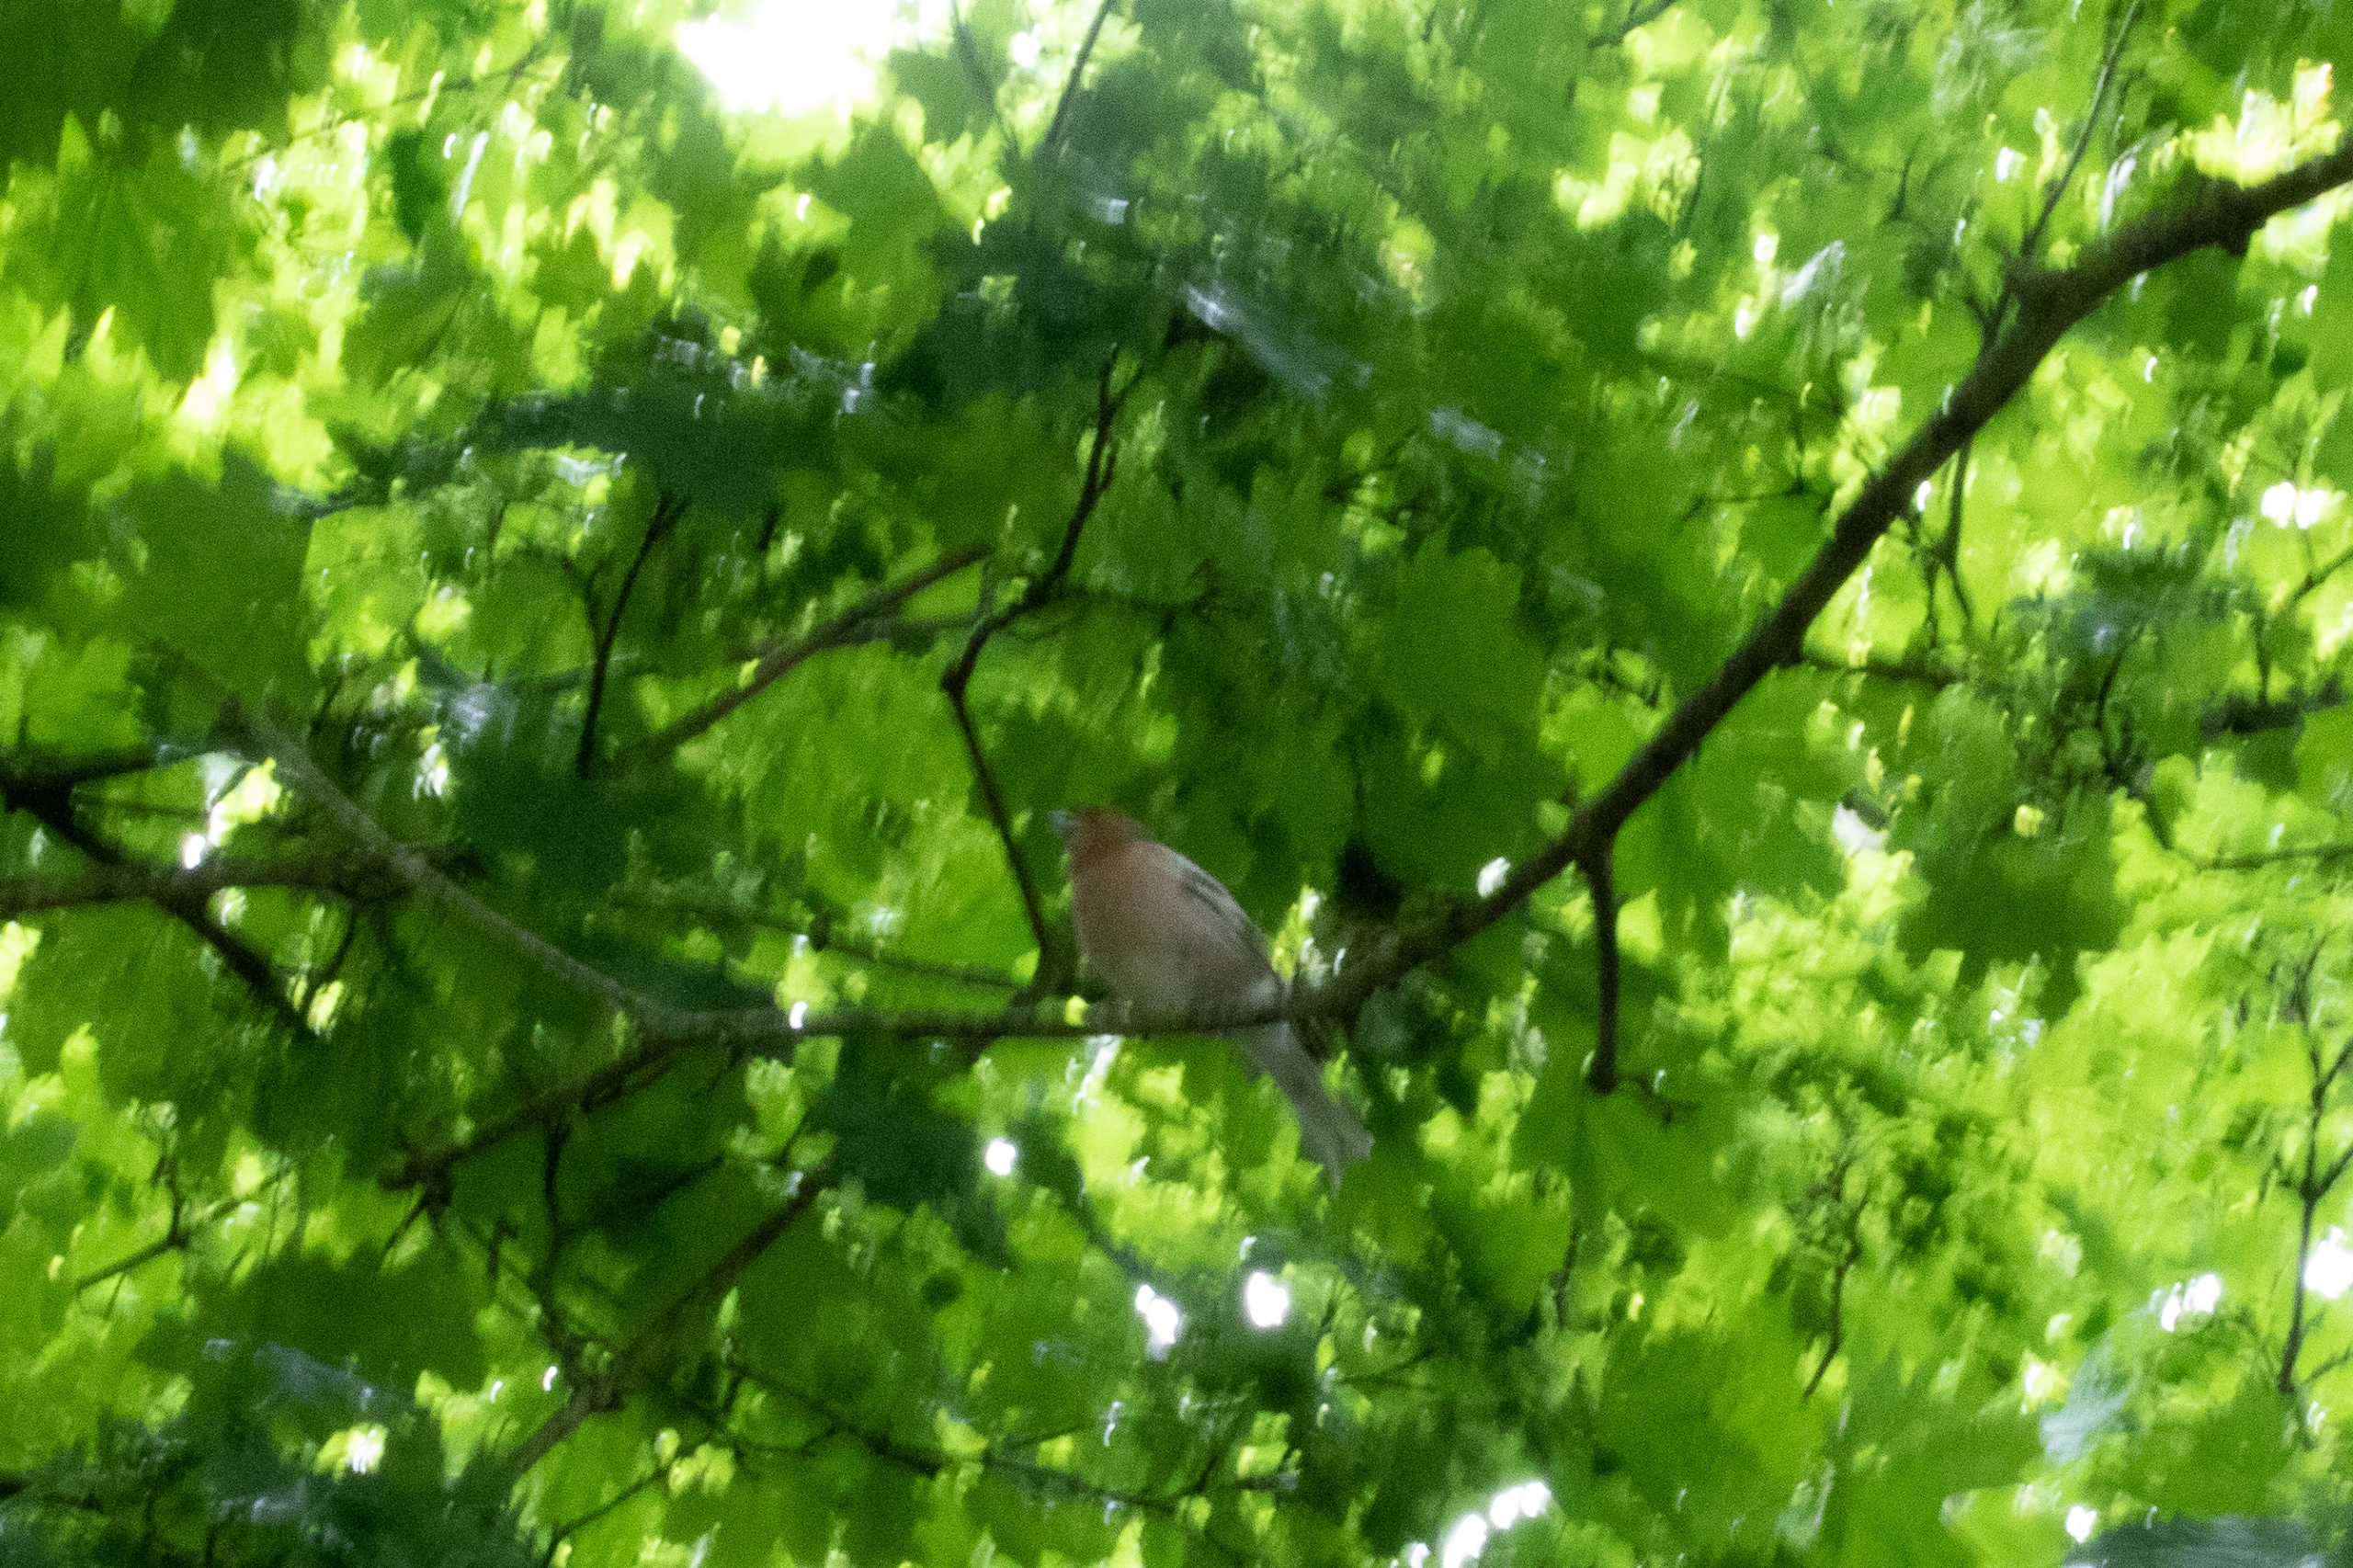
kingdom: Animalia
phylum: Chordata
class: Aves
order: Passeriformes
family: Fringillidae
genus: Fringilla
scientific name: Fringilla coelebs
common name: Bogfinke
